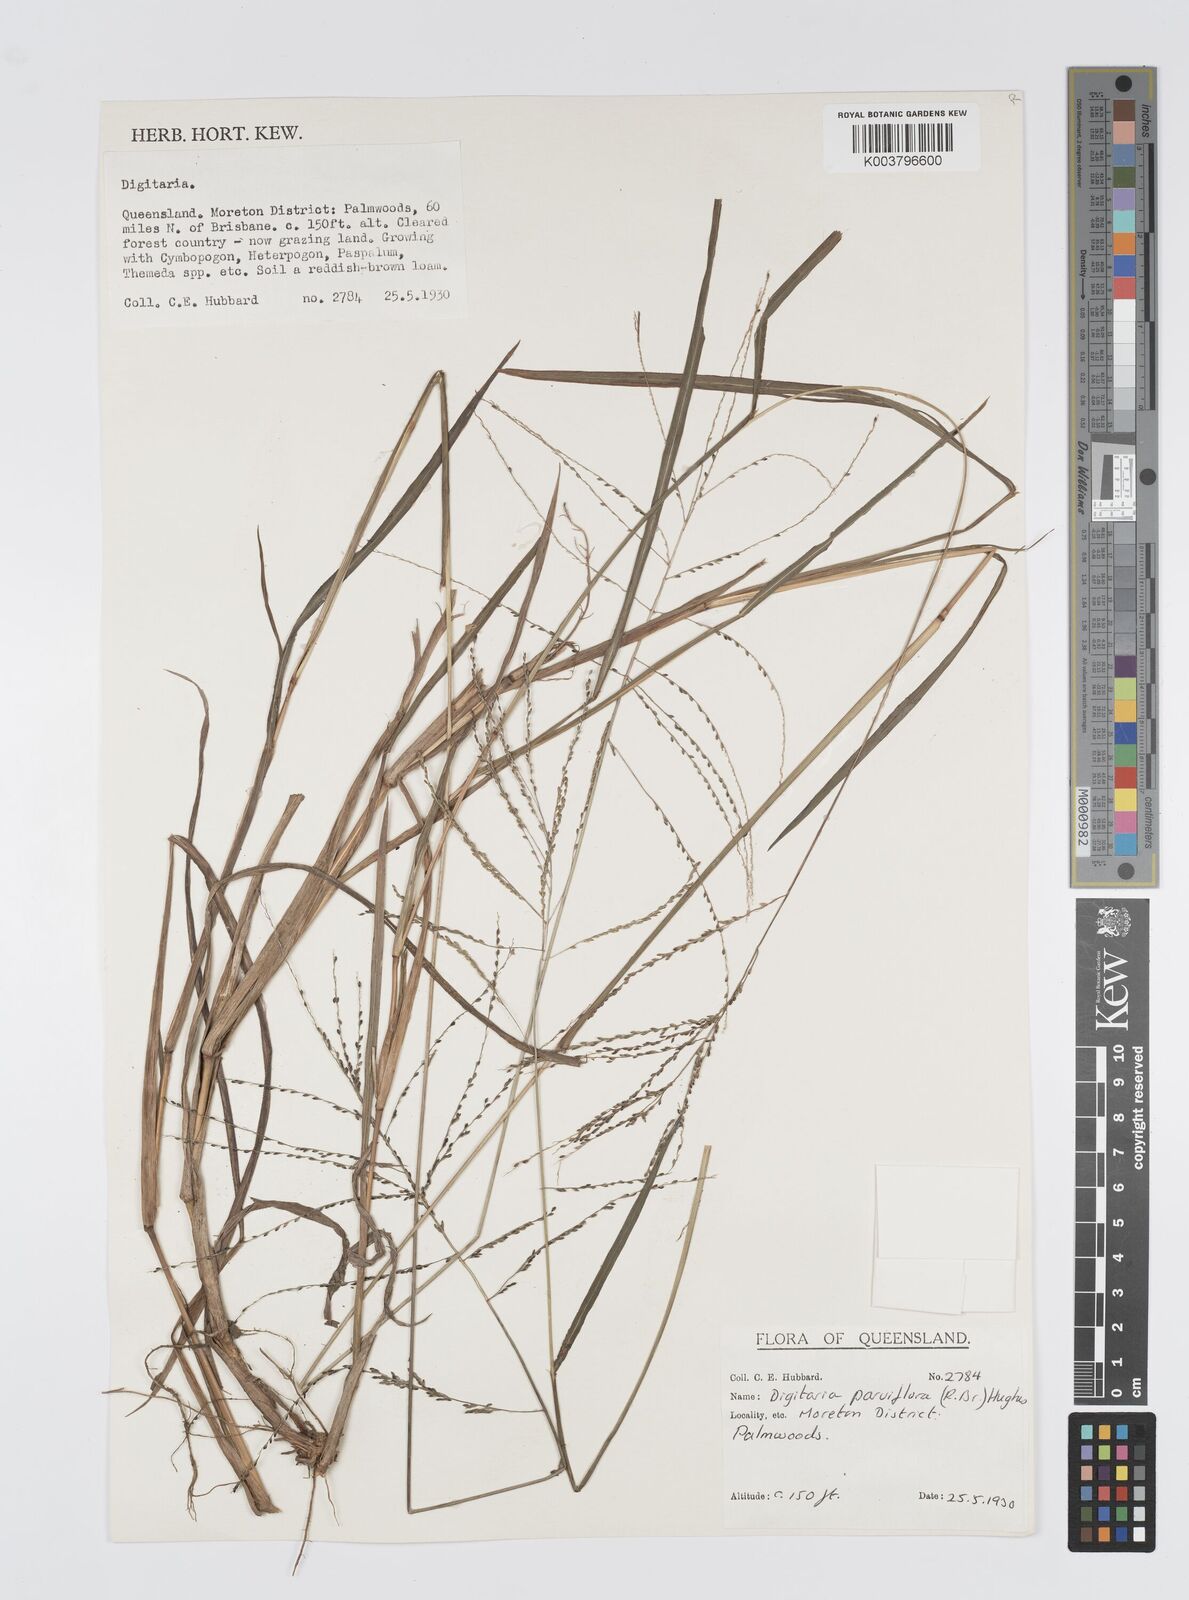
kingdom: Plantae
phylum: Tracheophyta
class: Liliopsida
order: Poales
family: Poaceae
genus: Digitaria
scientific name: Digitaria parviflora
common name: Small-flower finger grass
